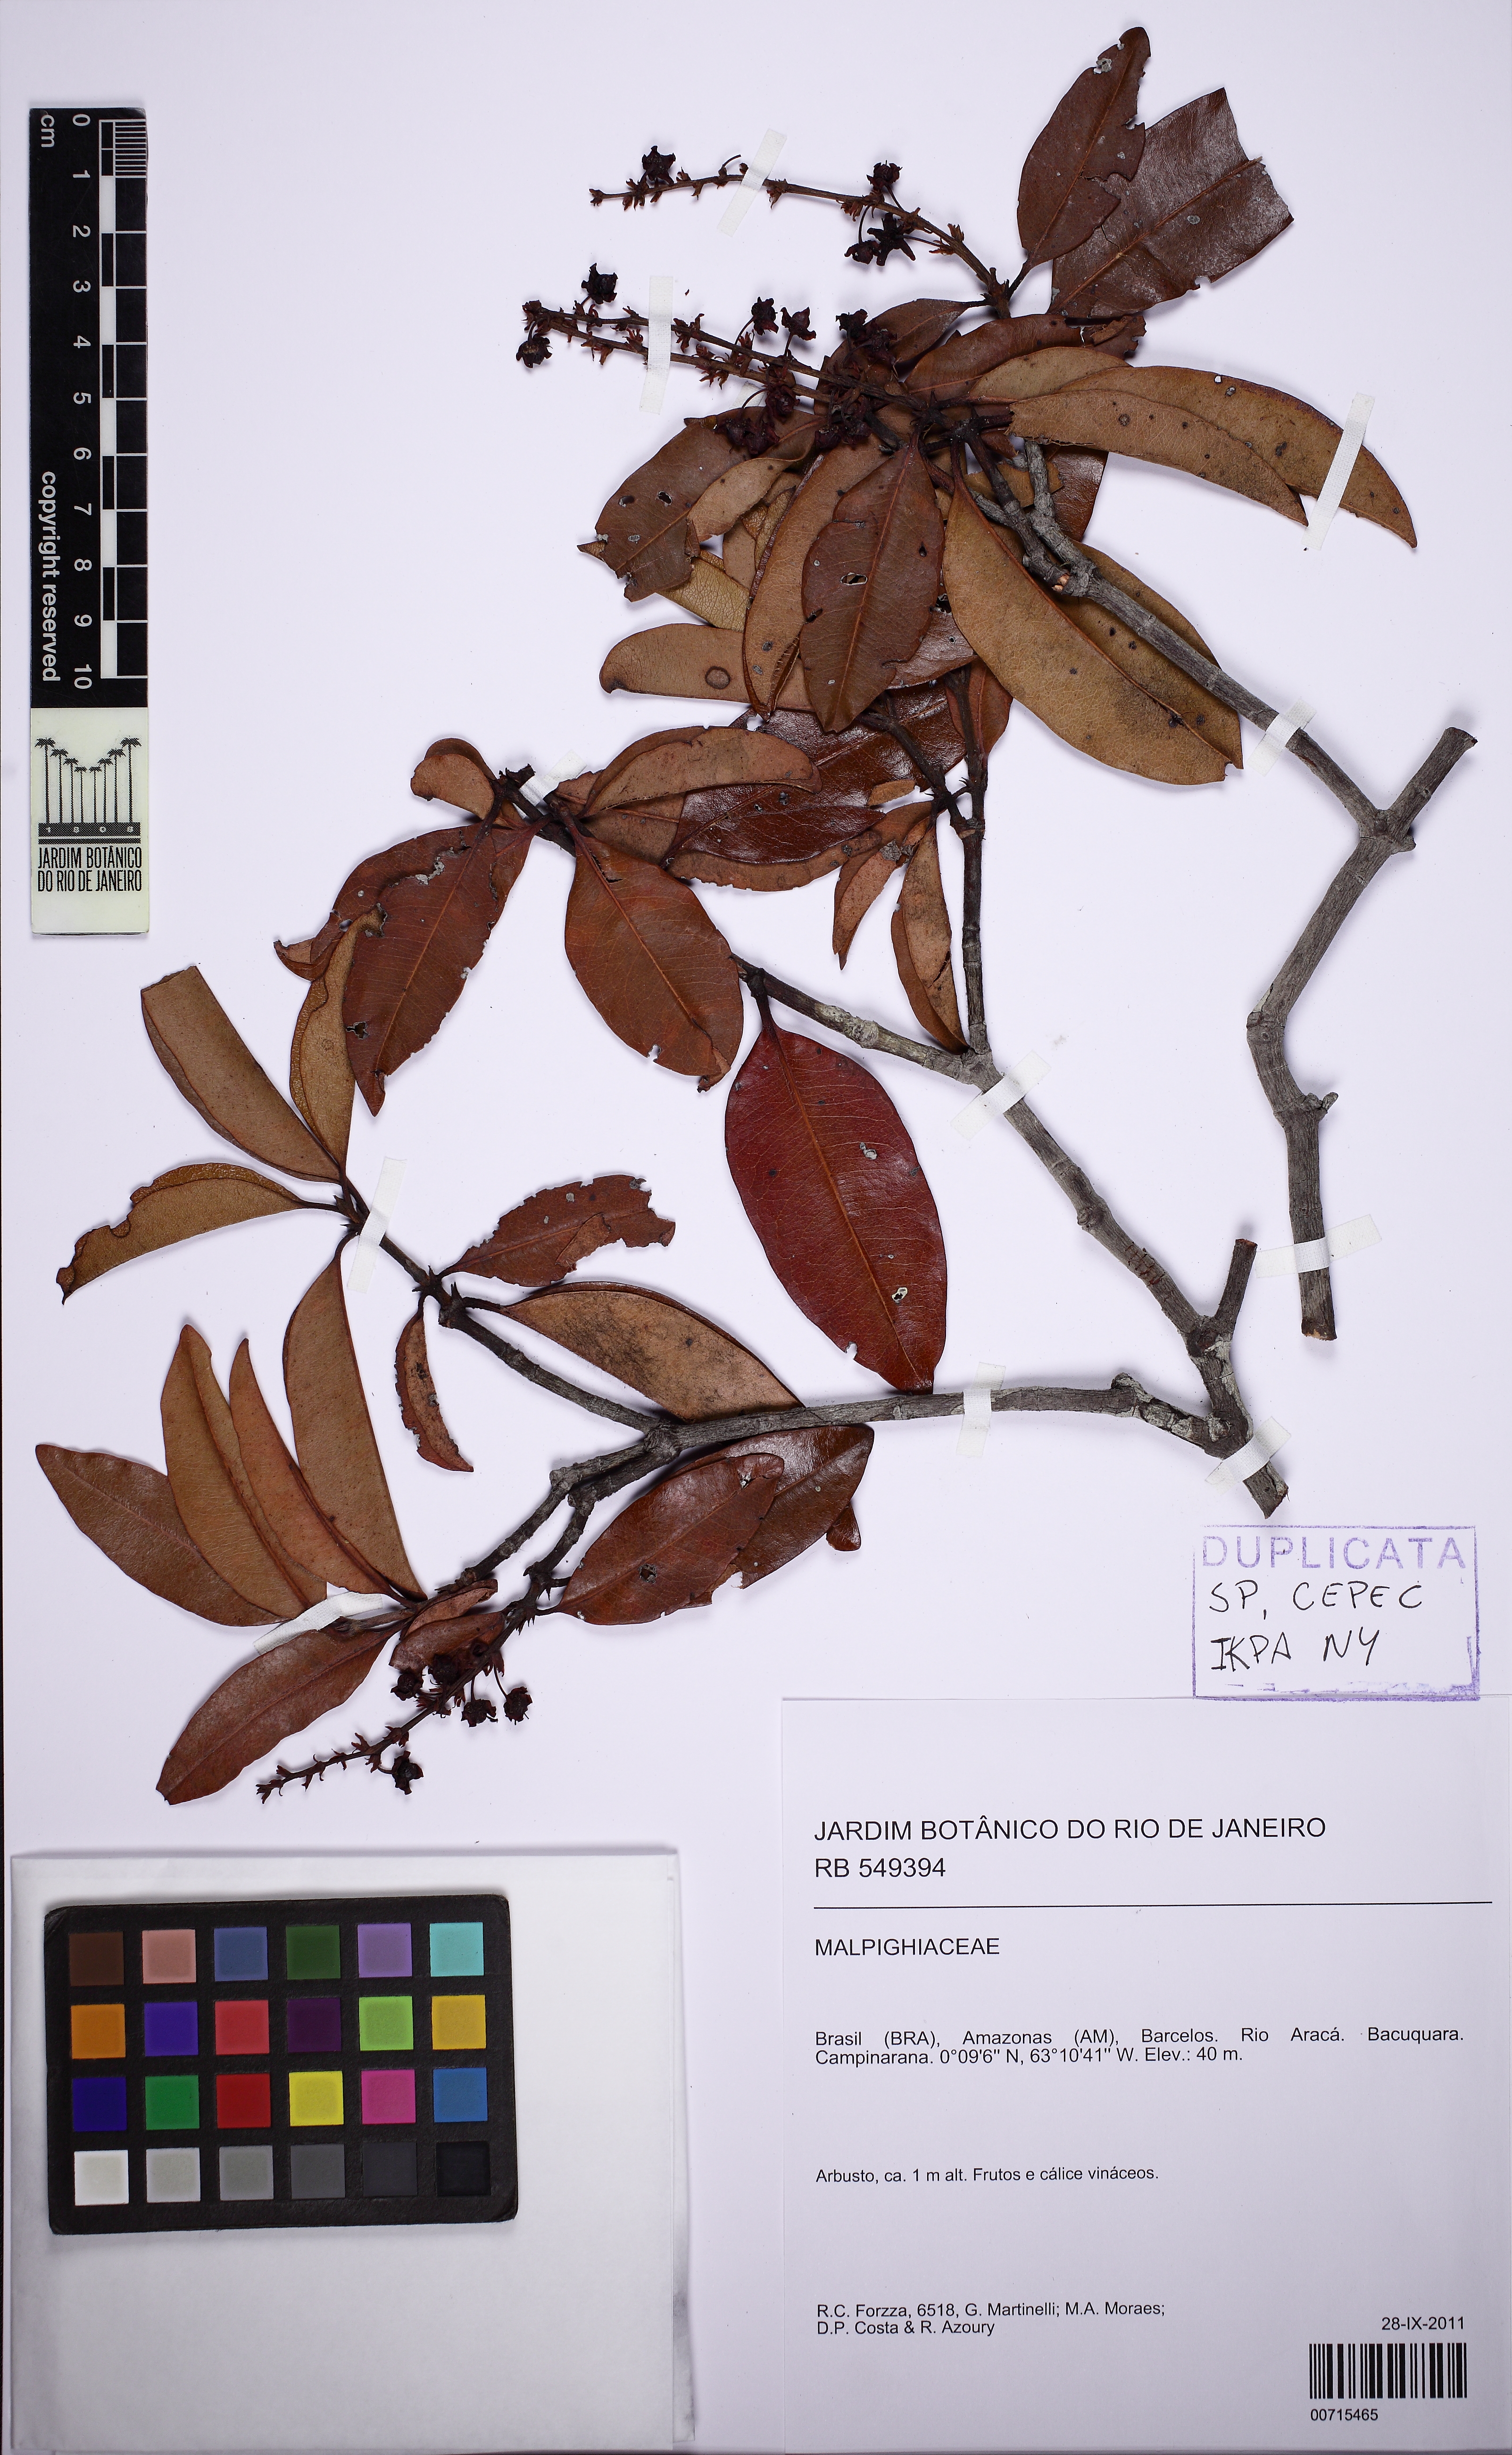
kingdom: Plantae
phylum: Tracheophyta
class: Magnoliopsida
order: Malpighiales
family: Malpighiaceae
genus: Byrsonima
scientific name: Byrsonima
